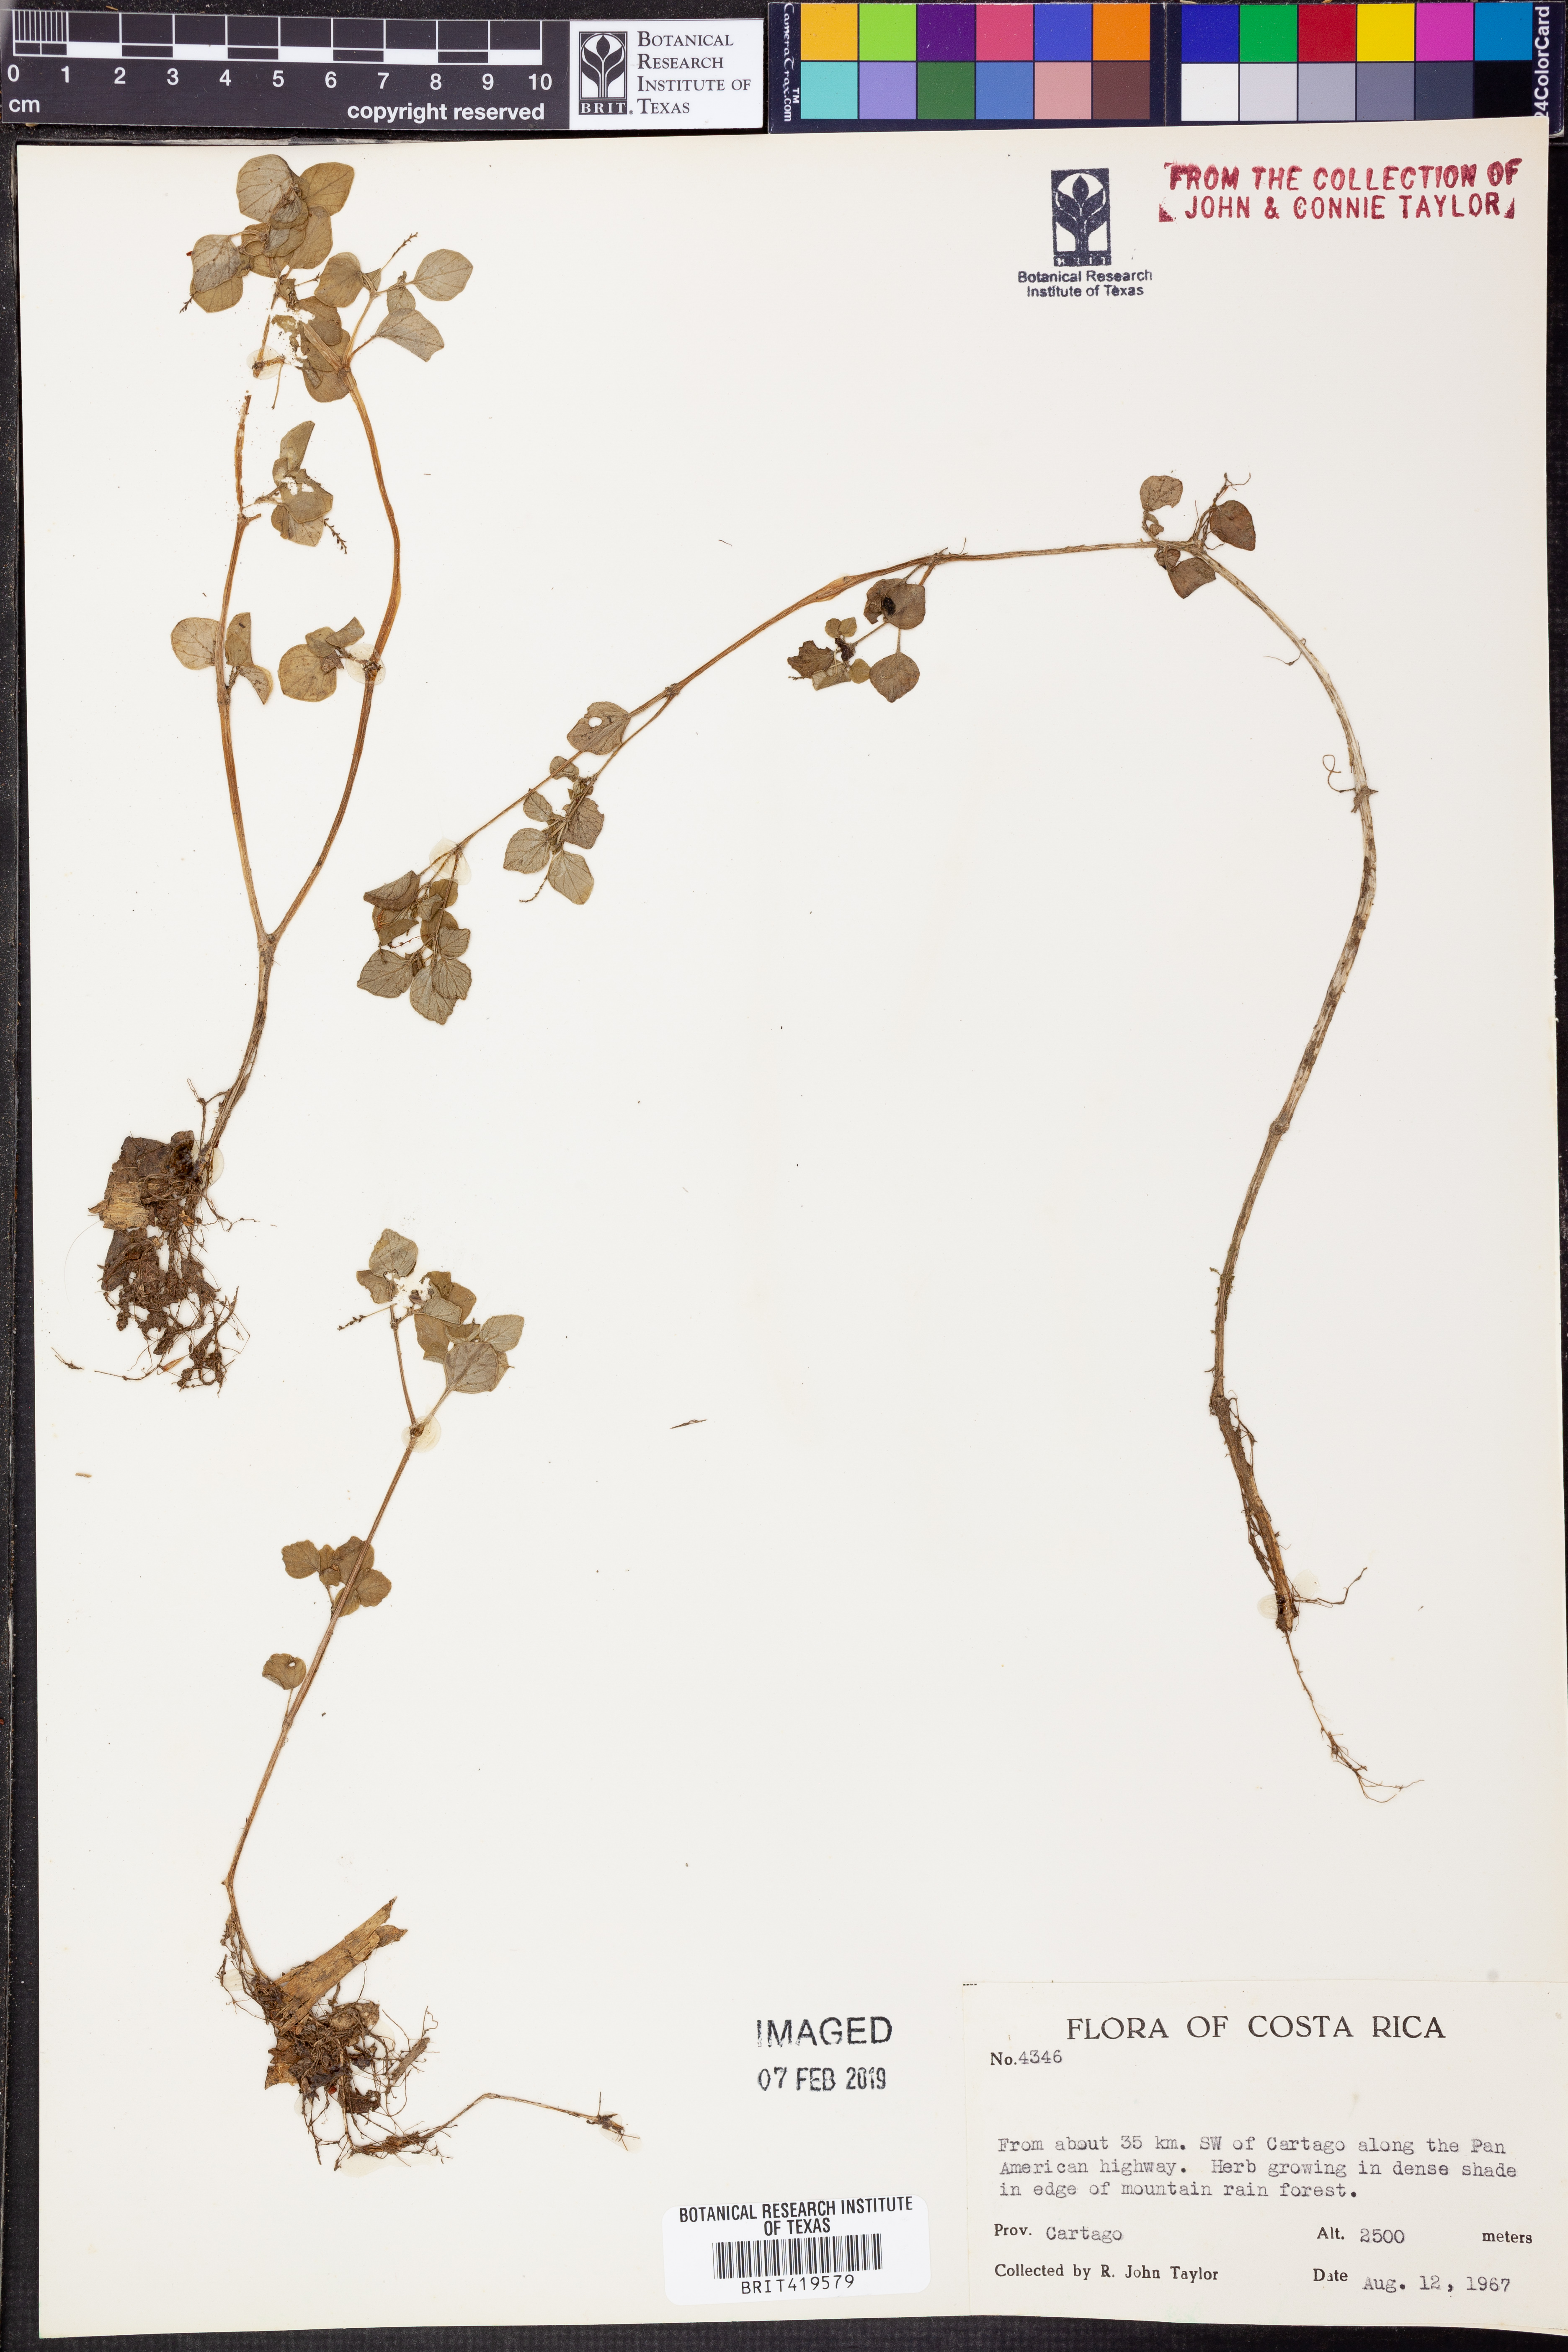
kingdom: Plantae
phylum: Tracheophyta
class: Magnoliopsida
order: Piperales
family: Piperaceae
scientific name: Piperaceae
